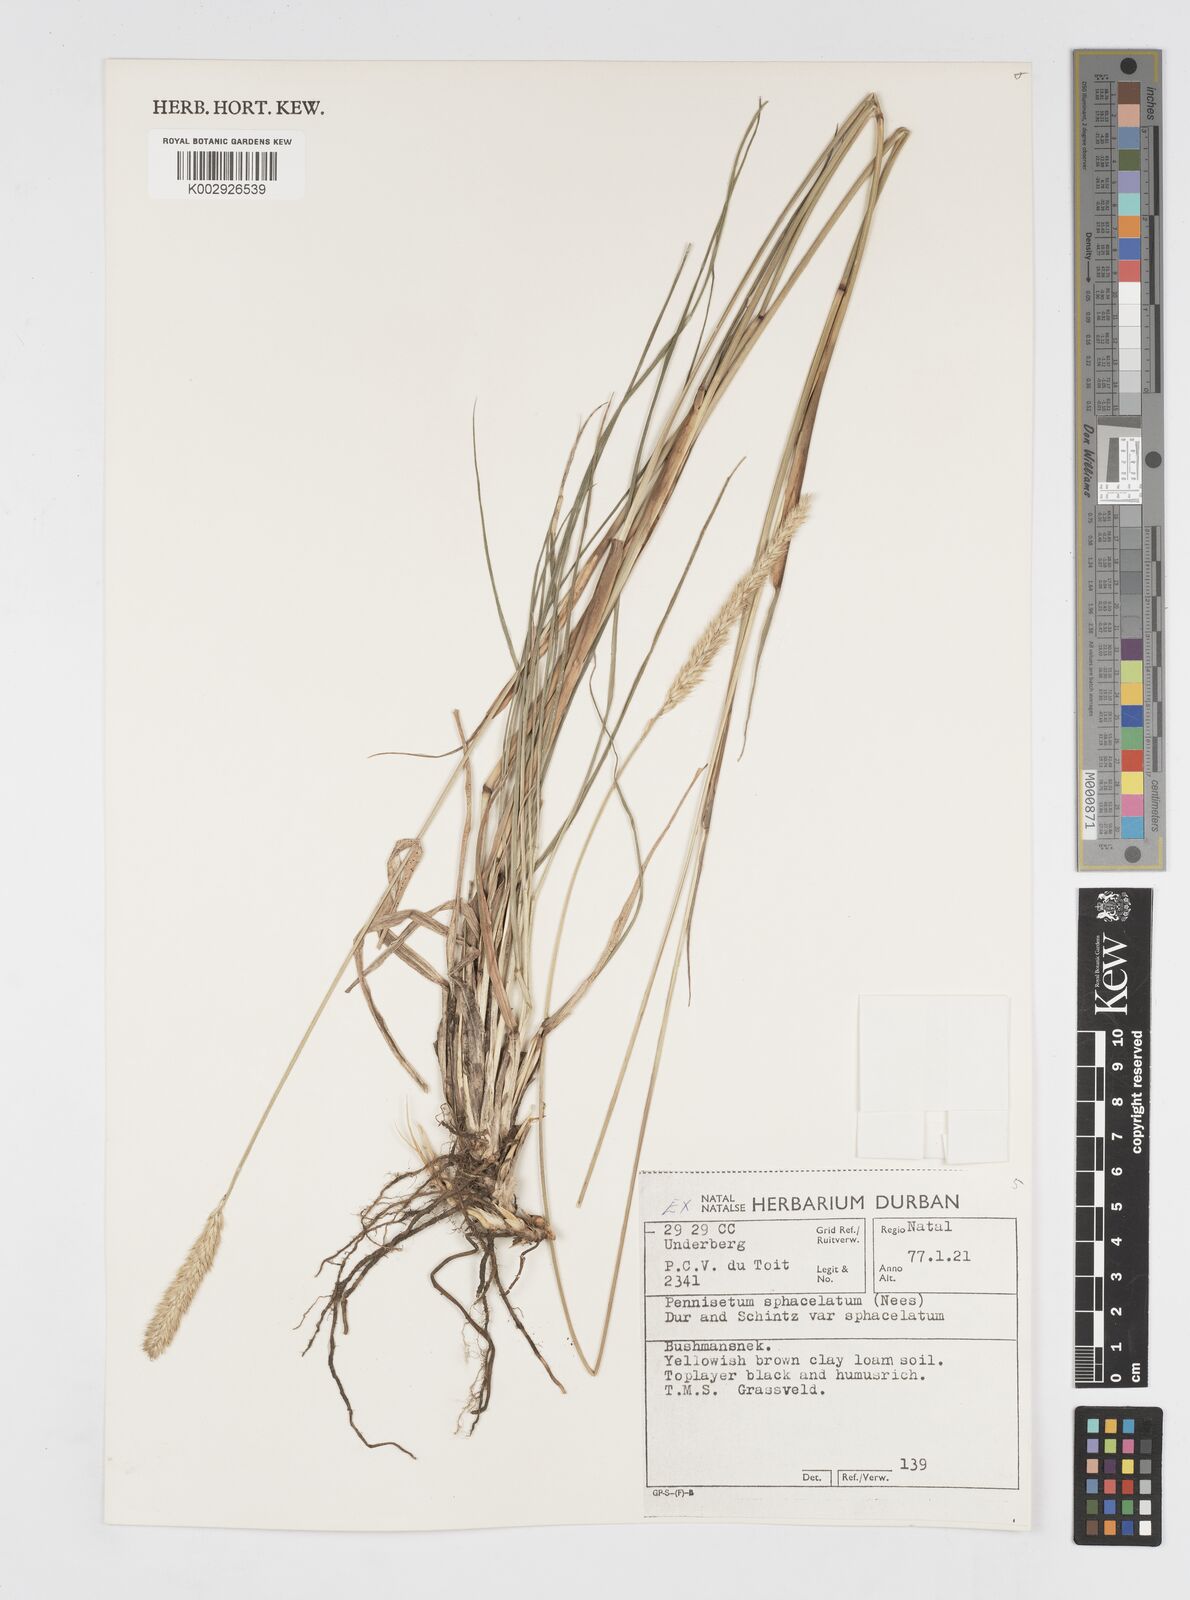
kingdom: Plantae
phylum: Tracheophyta
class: Liliopsida
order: Poales
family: Poaceae
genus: Cenchrus
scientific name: Cenchrus sphacelatus
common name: Bulgras
